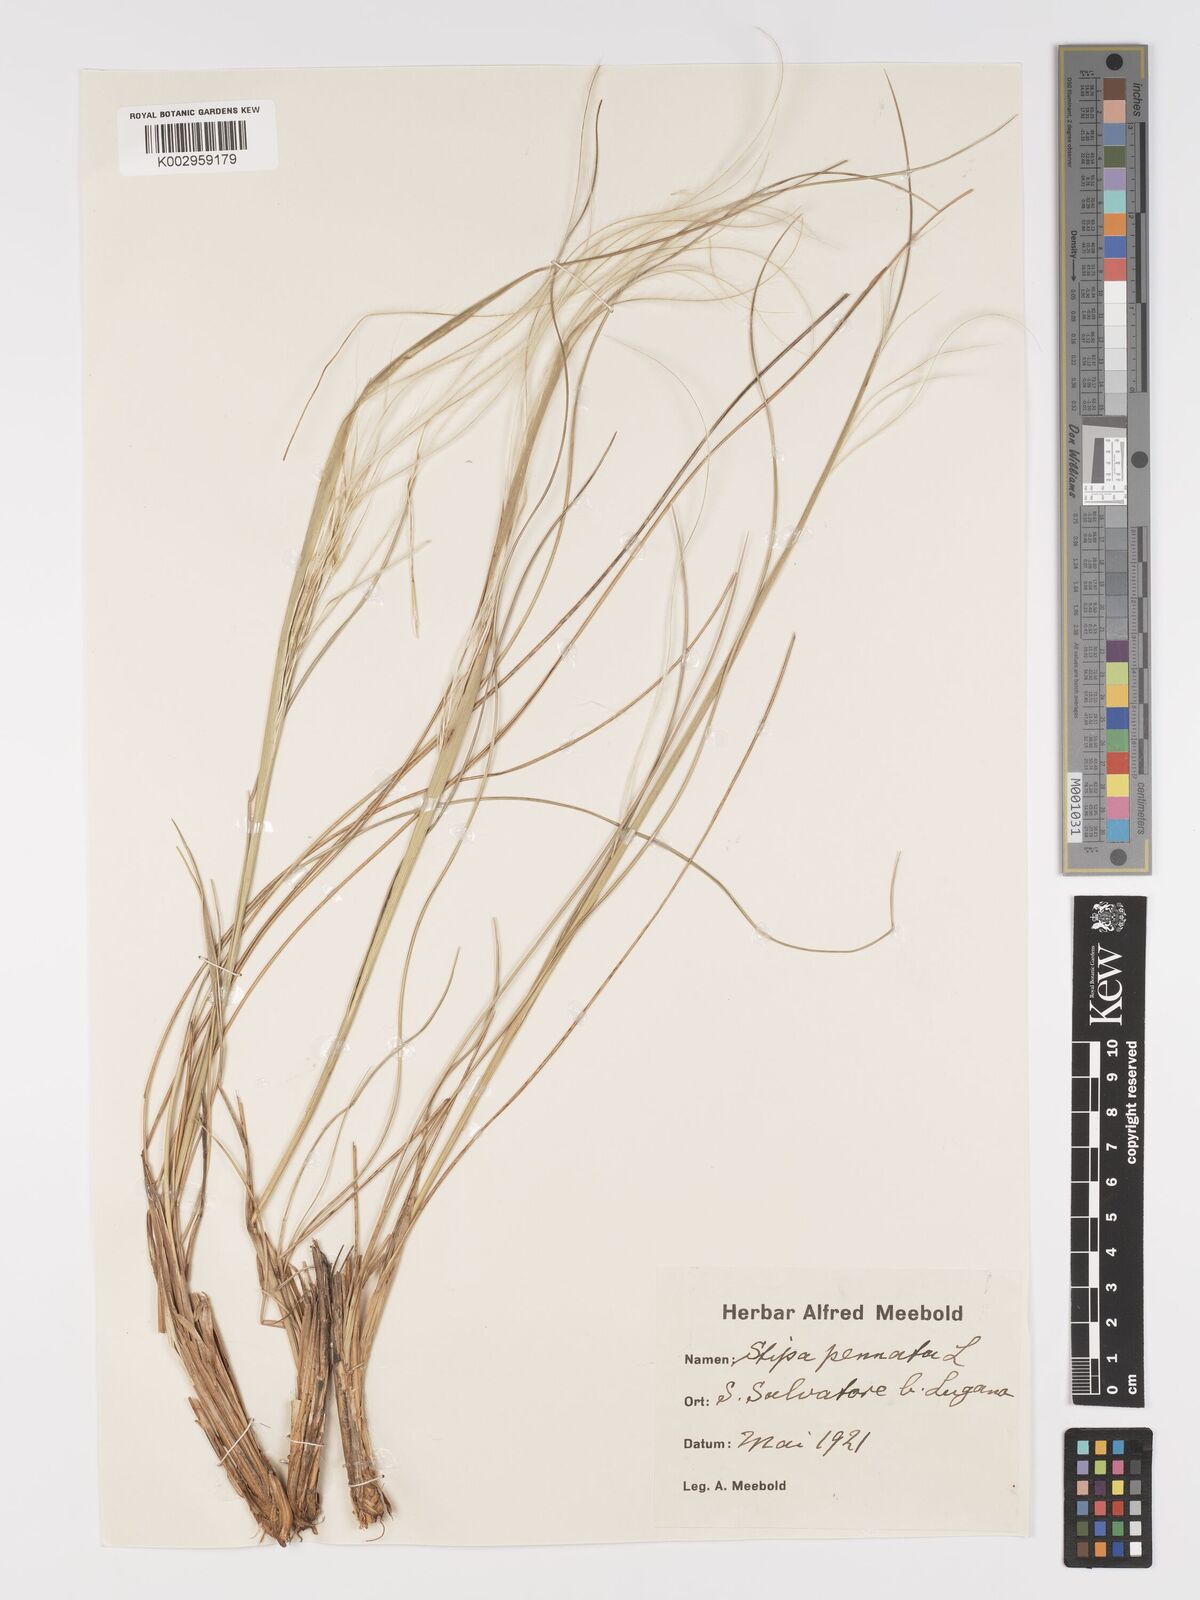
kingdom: Plantae
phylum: Tracheophyta
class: Liliopsida
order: Poales
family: Poaceae
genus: Stipa
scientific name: Stipa pennata
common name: European feather grass
